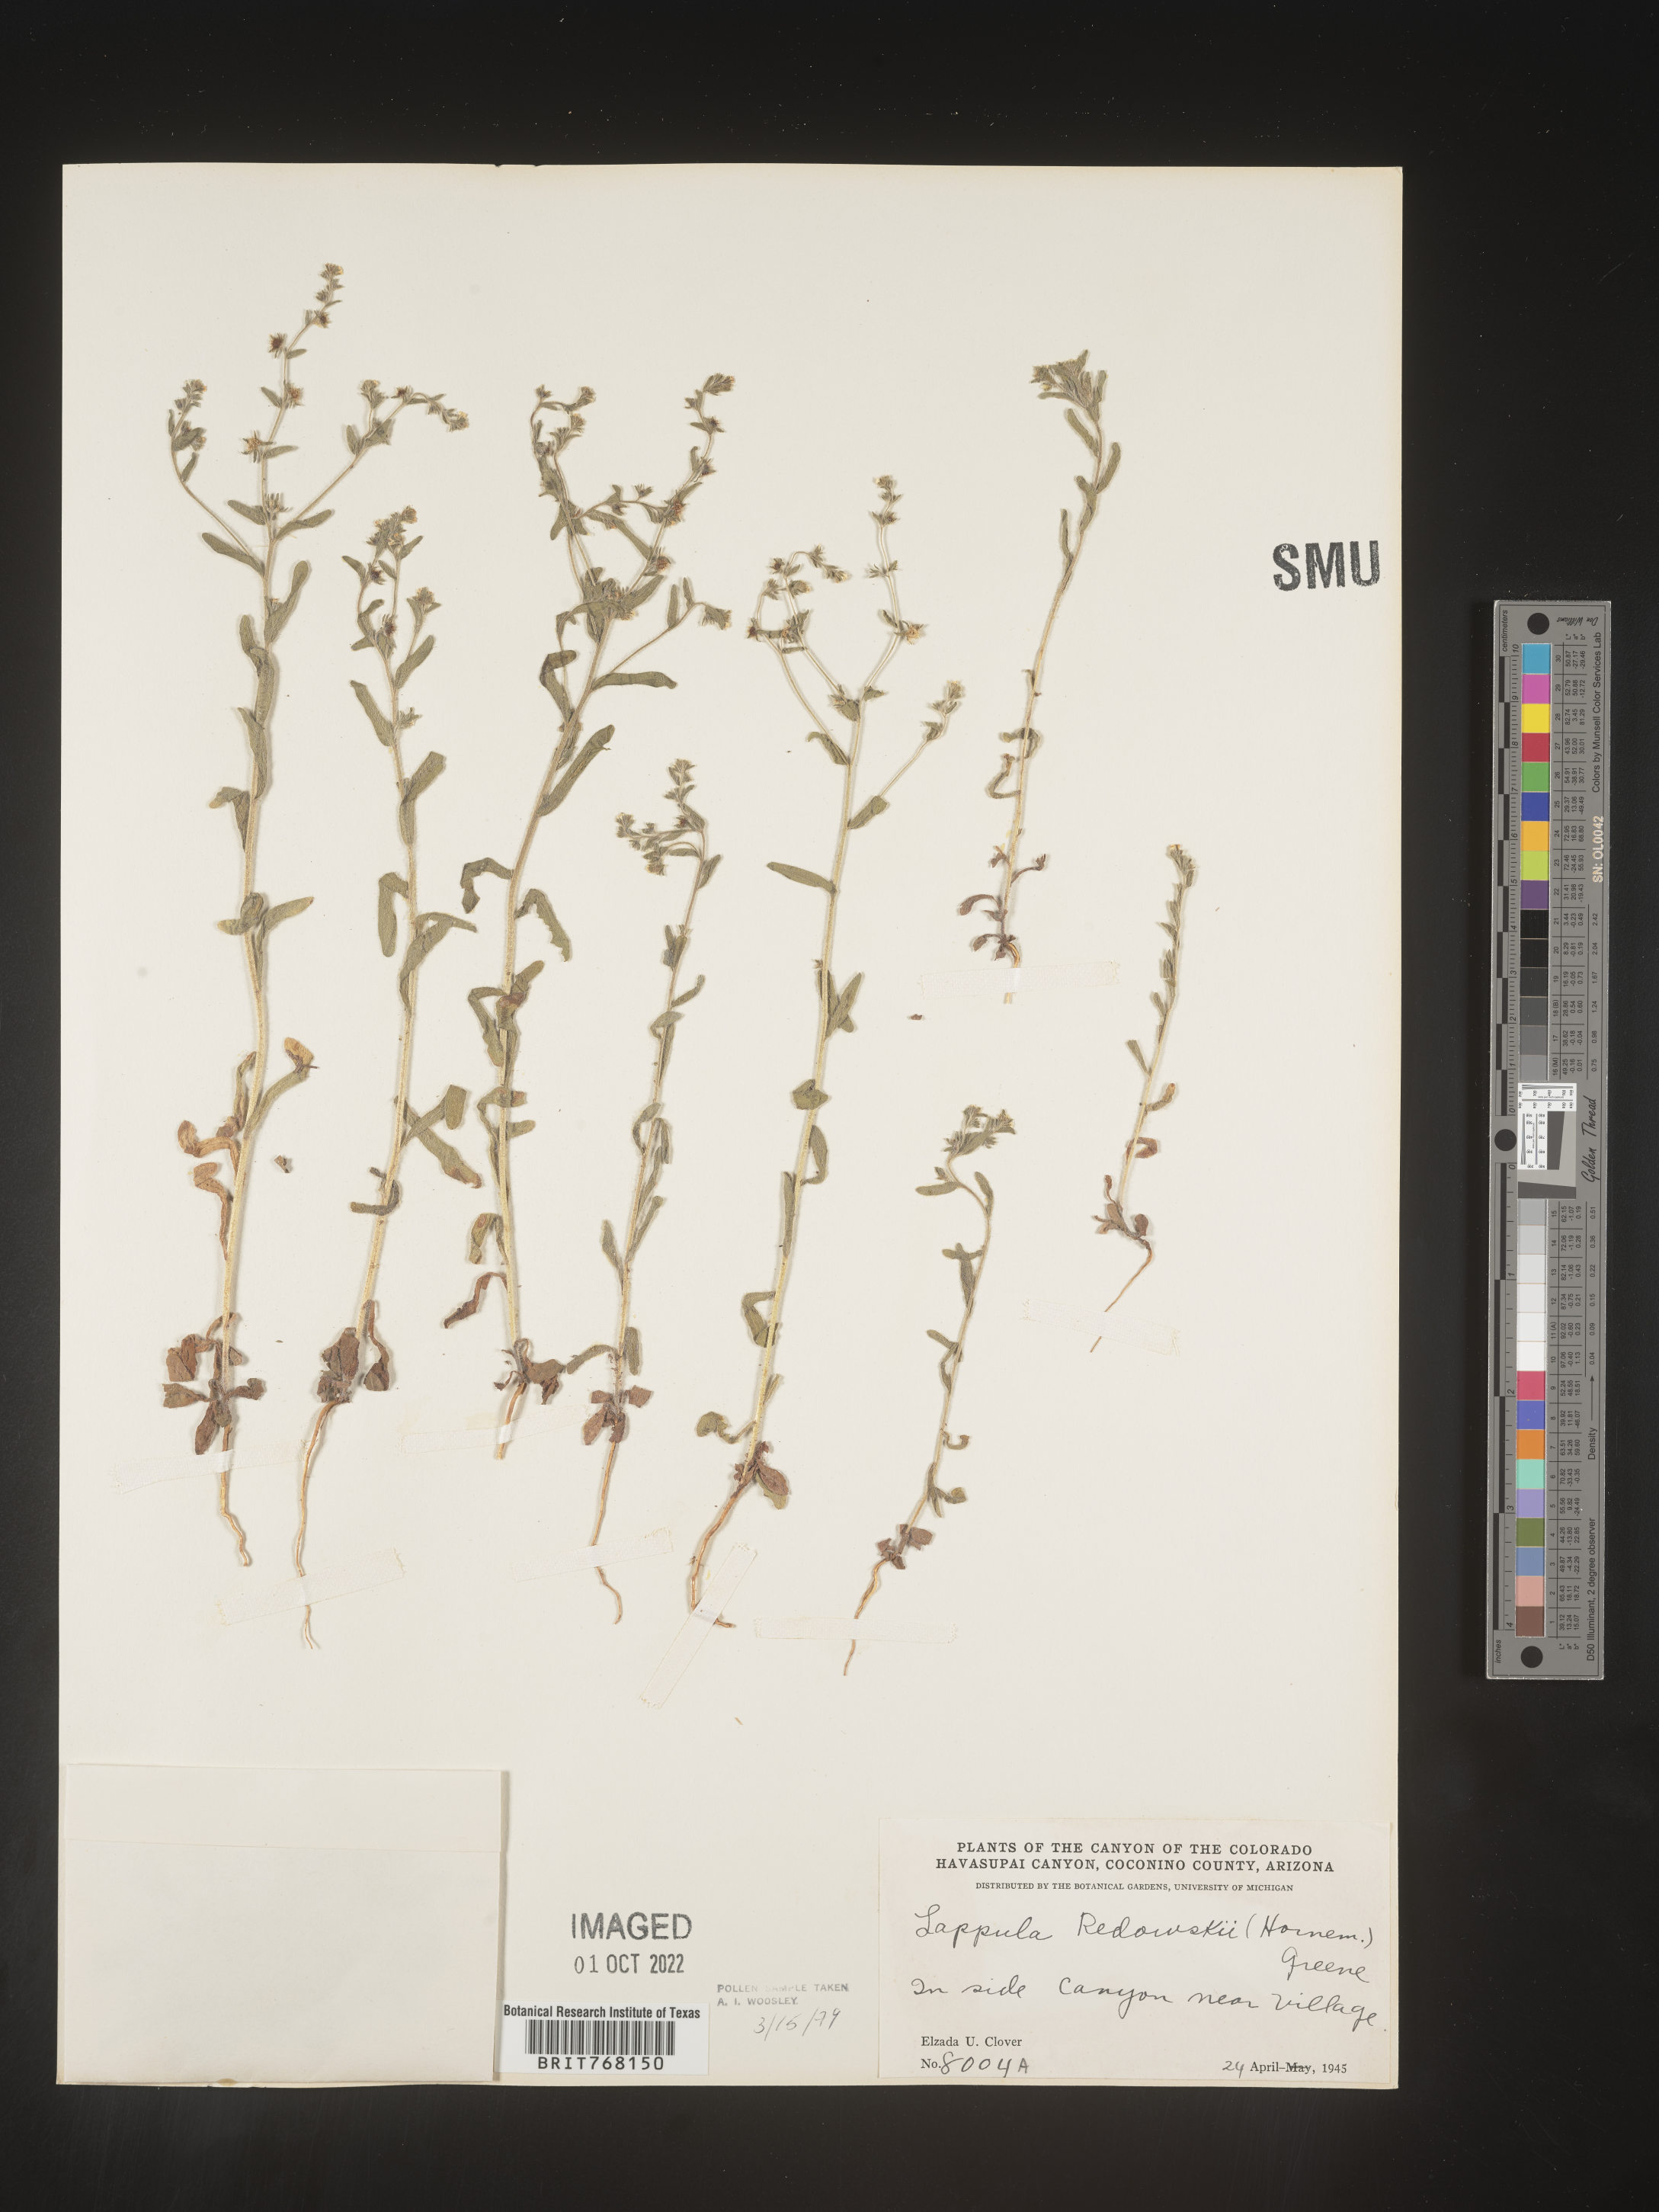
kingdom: Plantae
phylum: Tracheophyta
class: Magnoliopsida
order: Boraginales
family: Boraginaceae
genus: Lappula
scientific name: Lappula redowskii
